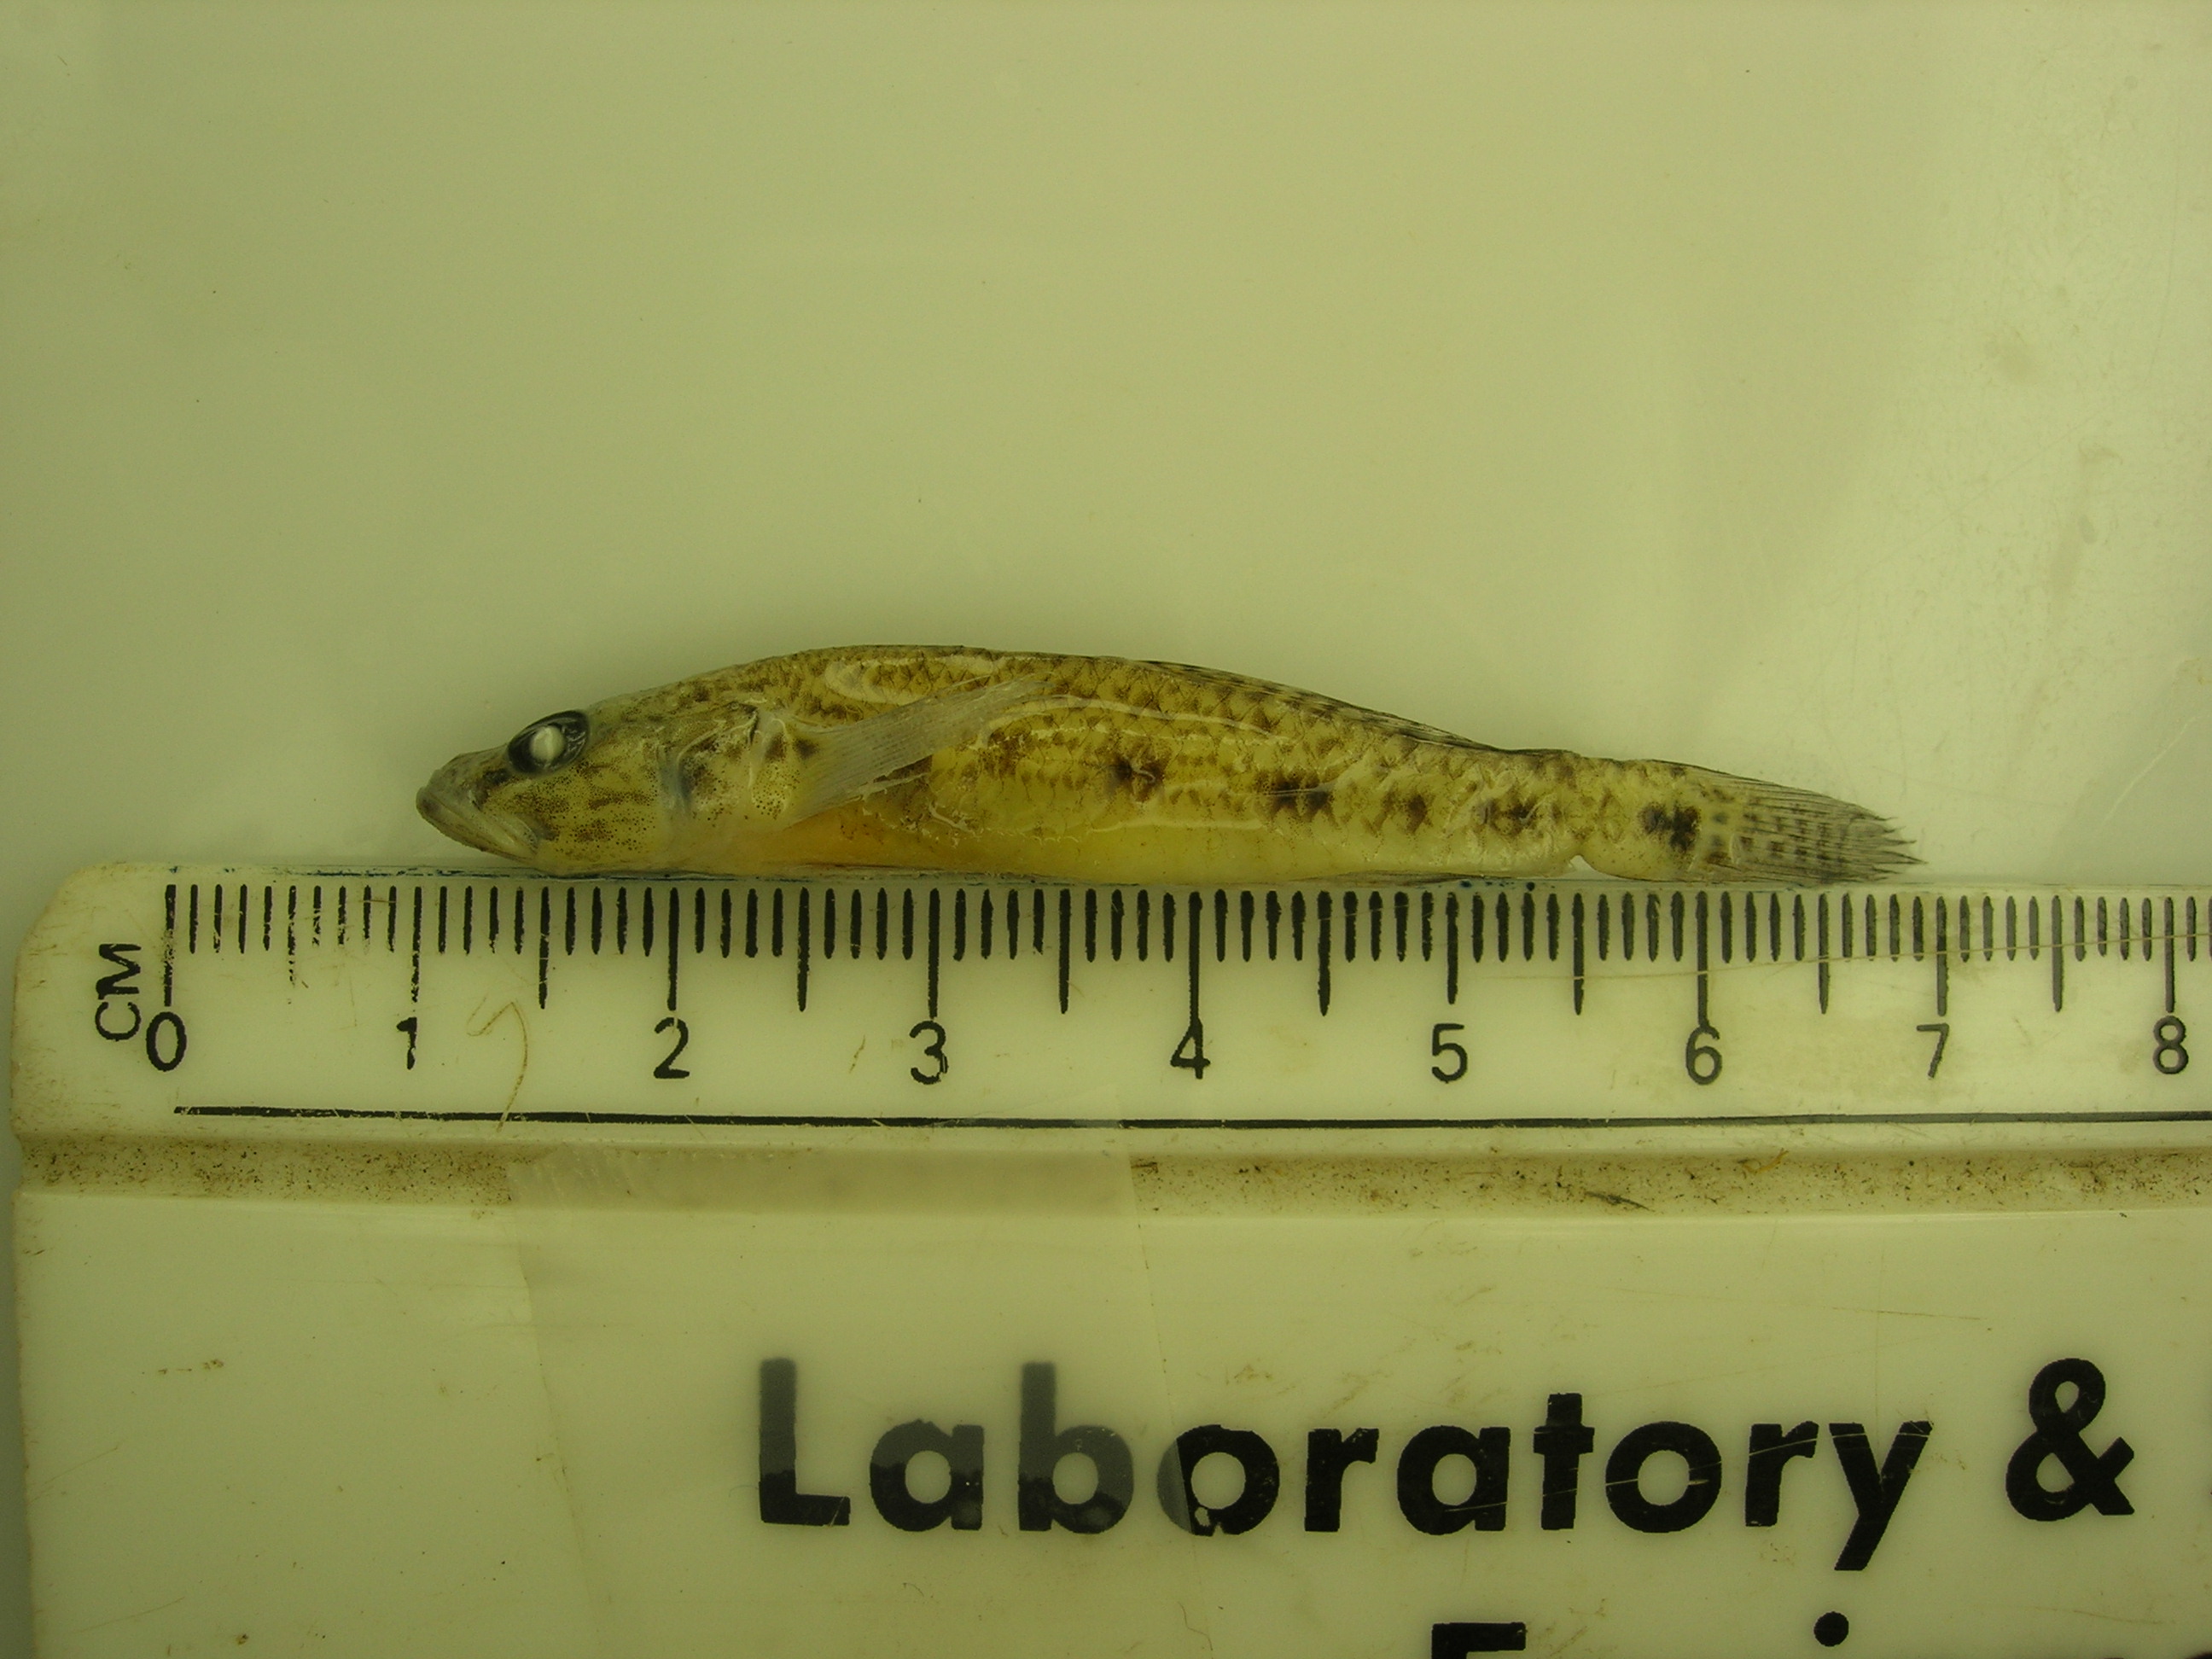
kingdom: Animalia
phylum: Chordata
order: Perciformes
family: Gobiidae
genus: Glossogobius
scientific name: Glossogobius callidus
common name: River goby
